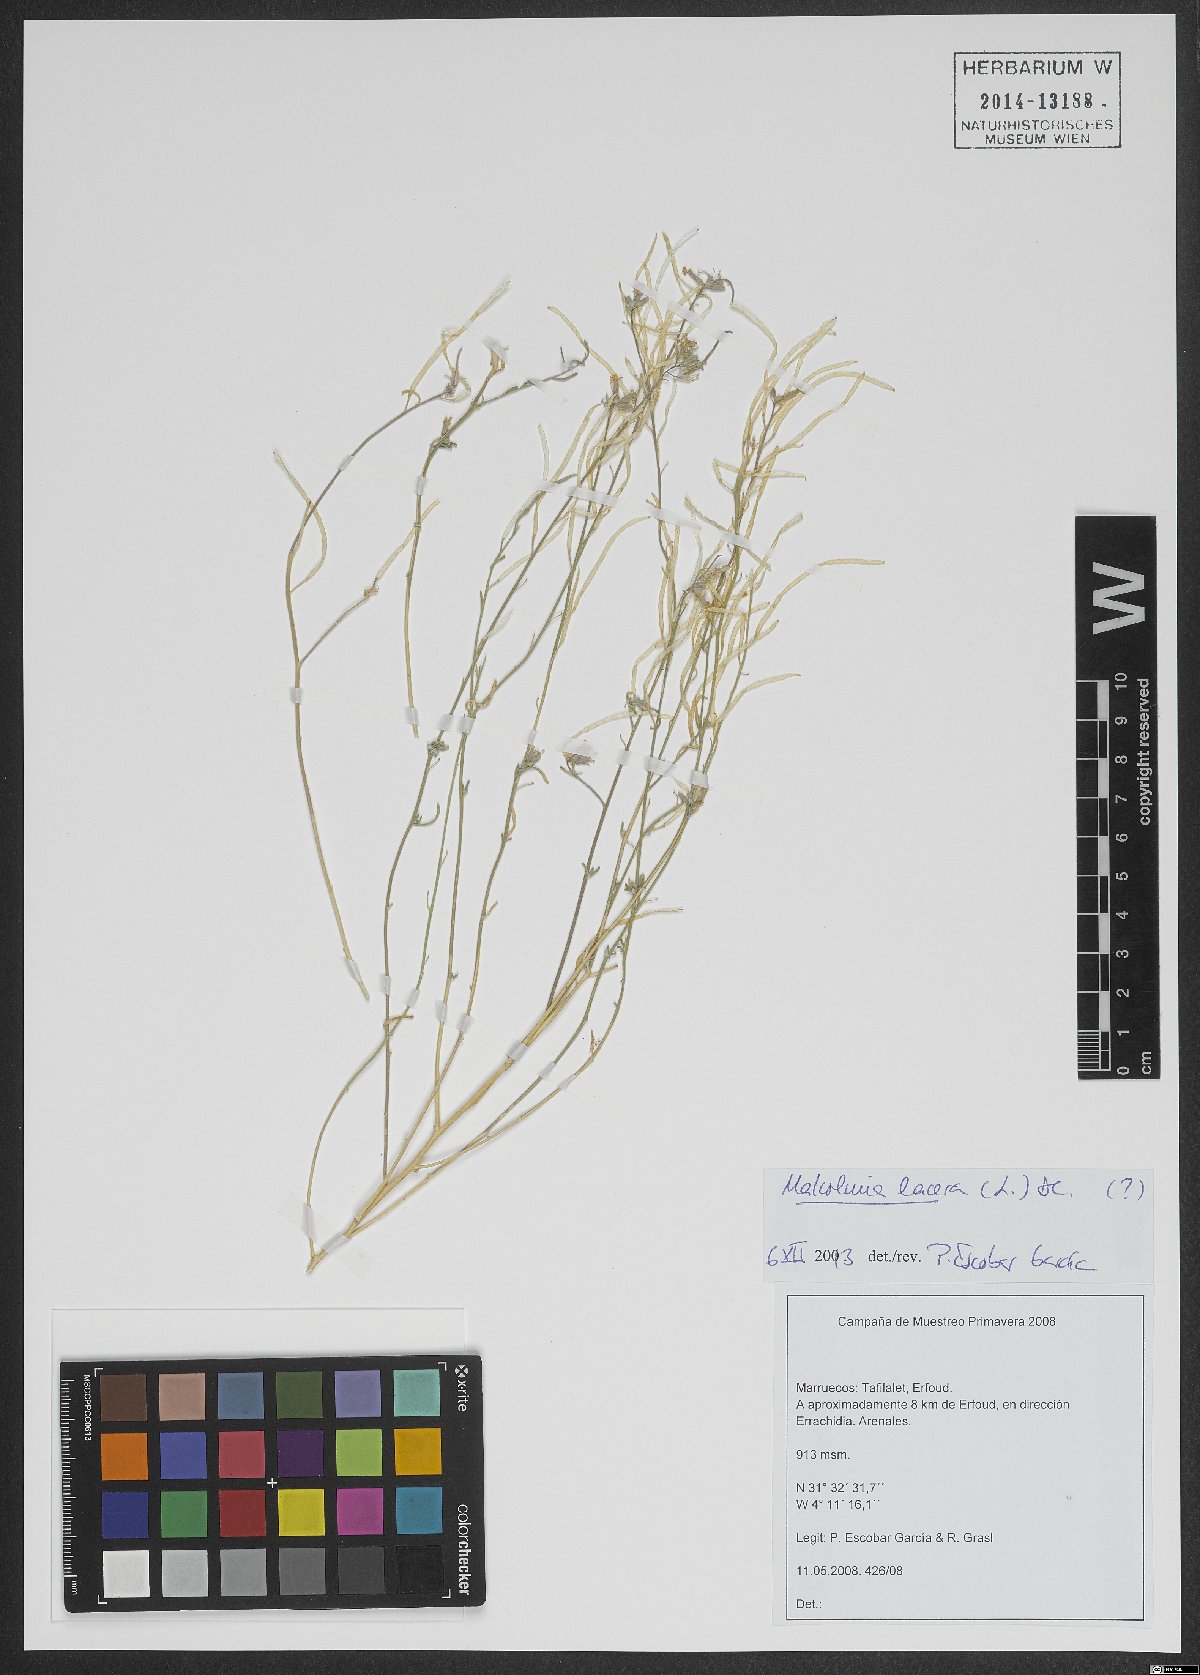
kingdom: Plantae
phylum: Tracheophyta
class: Magnoliopsida
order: Brassicales
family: Brassicaceae
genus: Raphanus
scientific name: Raphanus raphanistrum
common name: Wild radish
